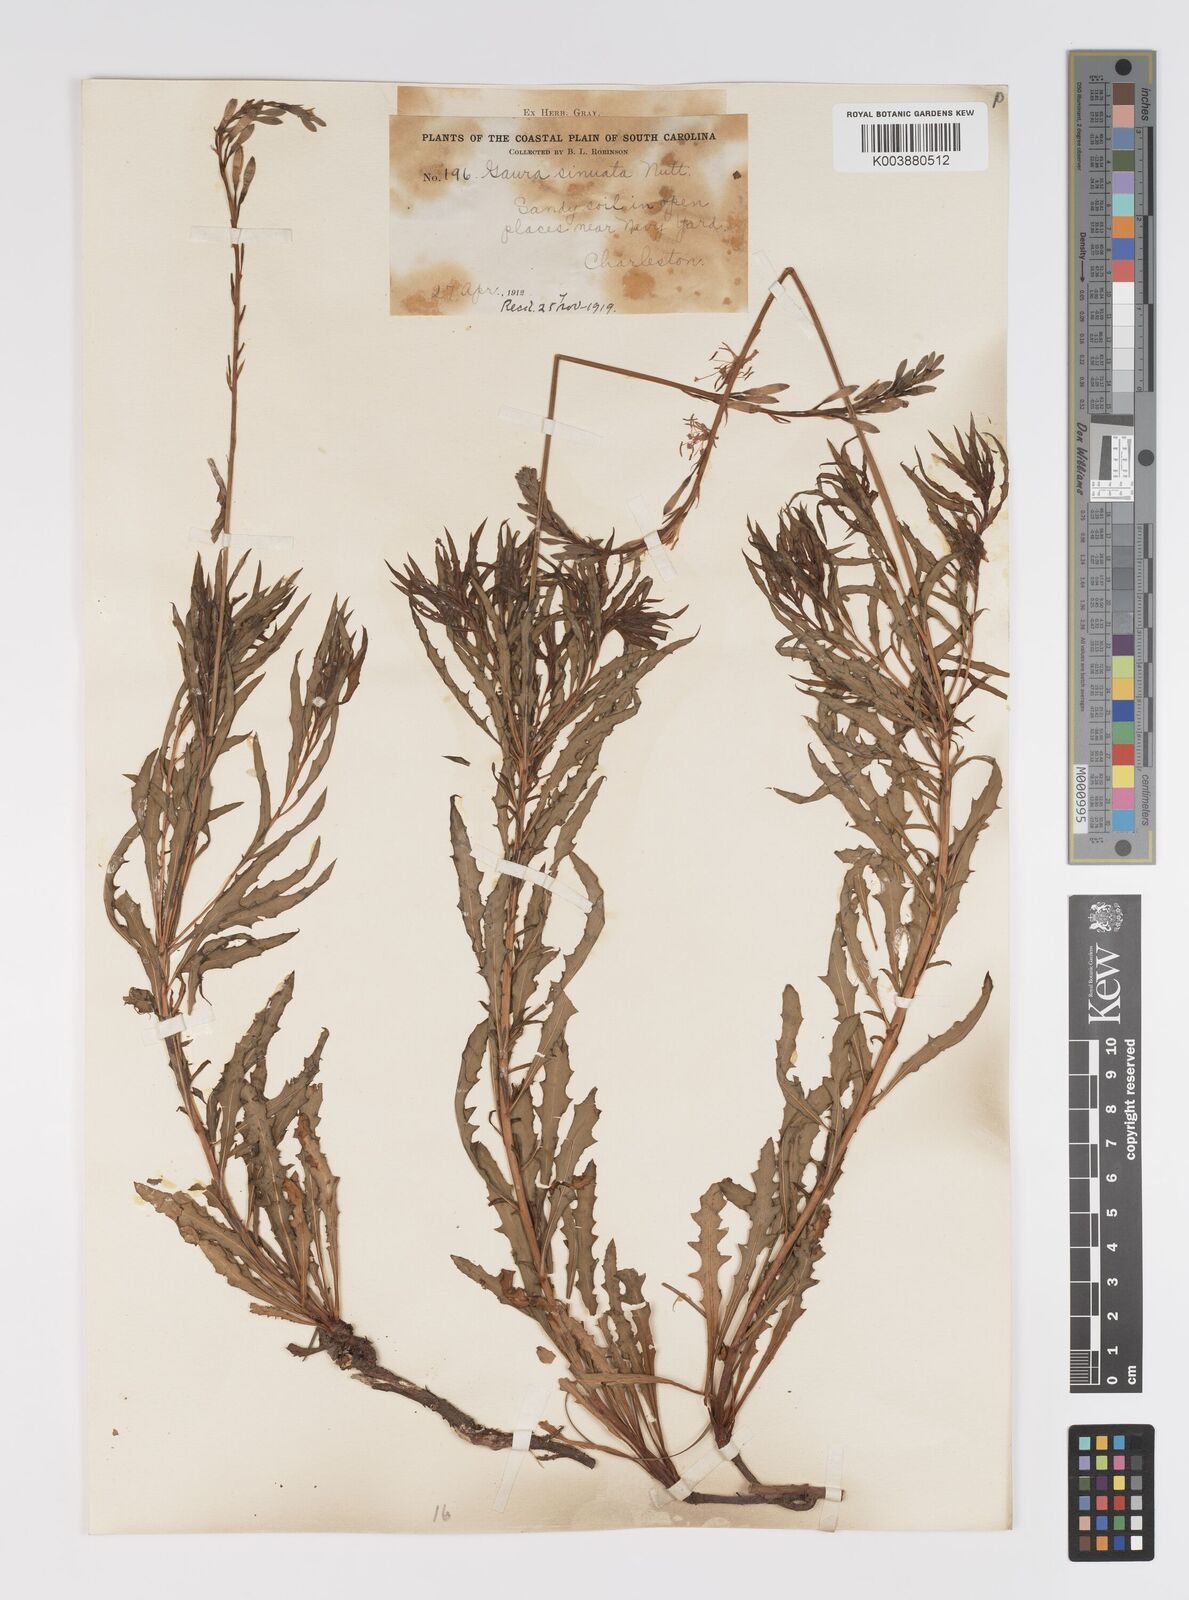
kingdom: Plantae
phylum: Tracheophyta
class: Magnoliopsida
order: Myrtales
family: Onagraceae
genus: Oenothera
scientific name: Oenothera sinuosa
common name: Wavyleaf beeblossom
